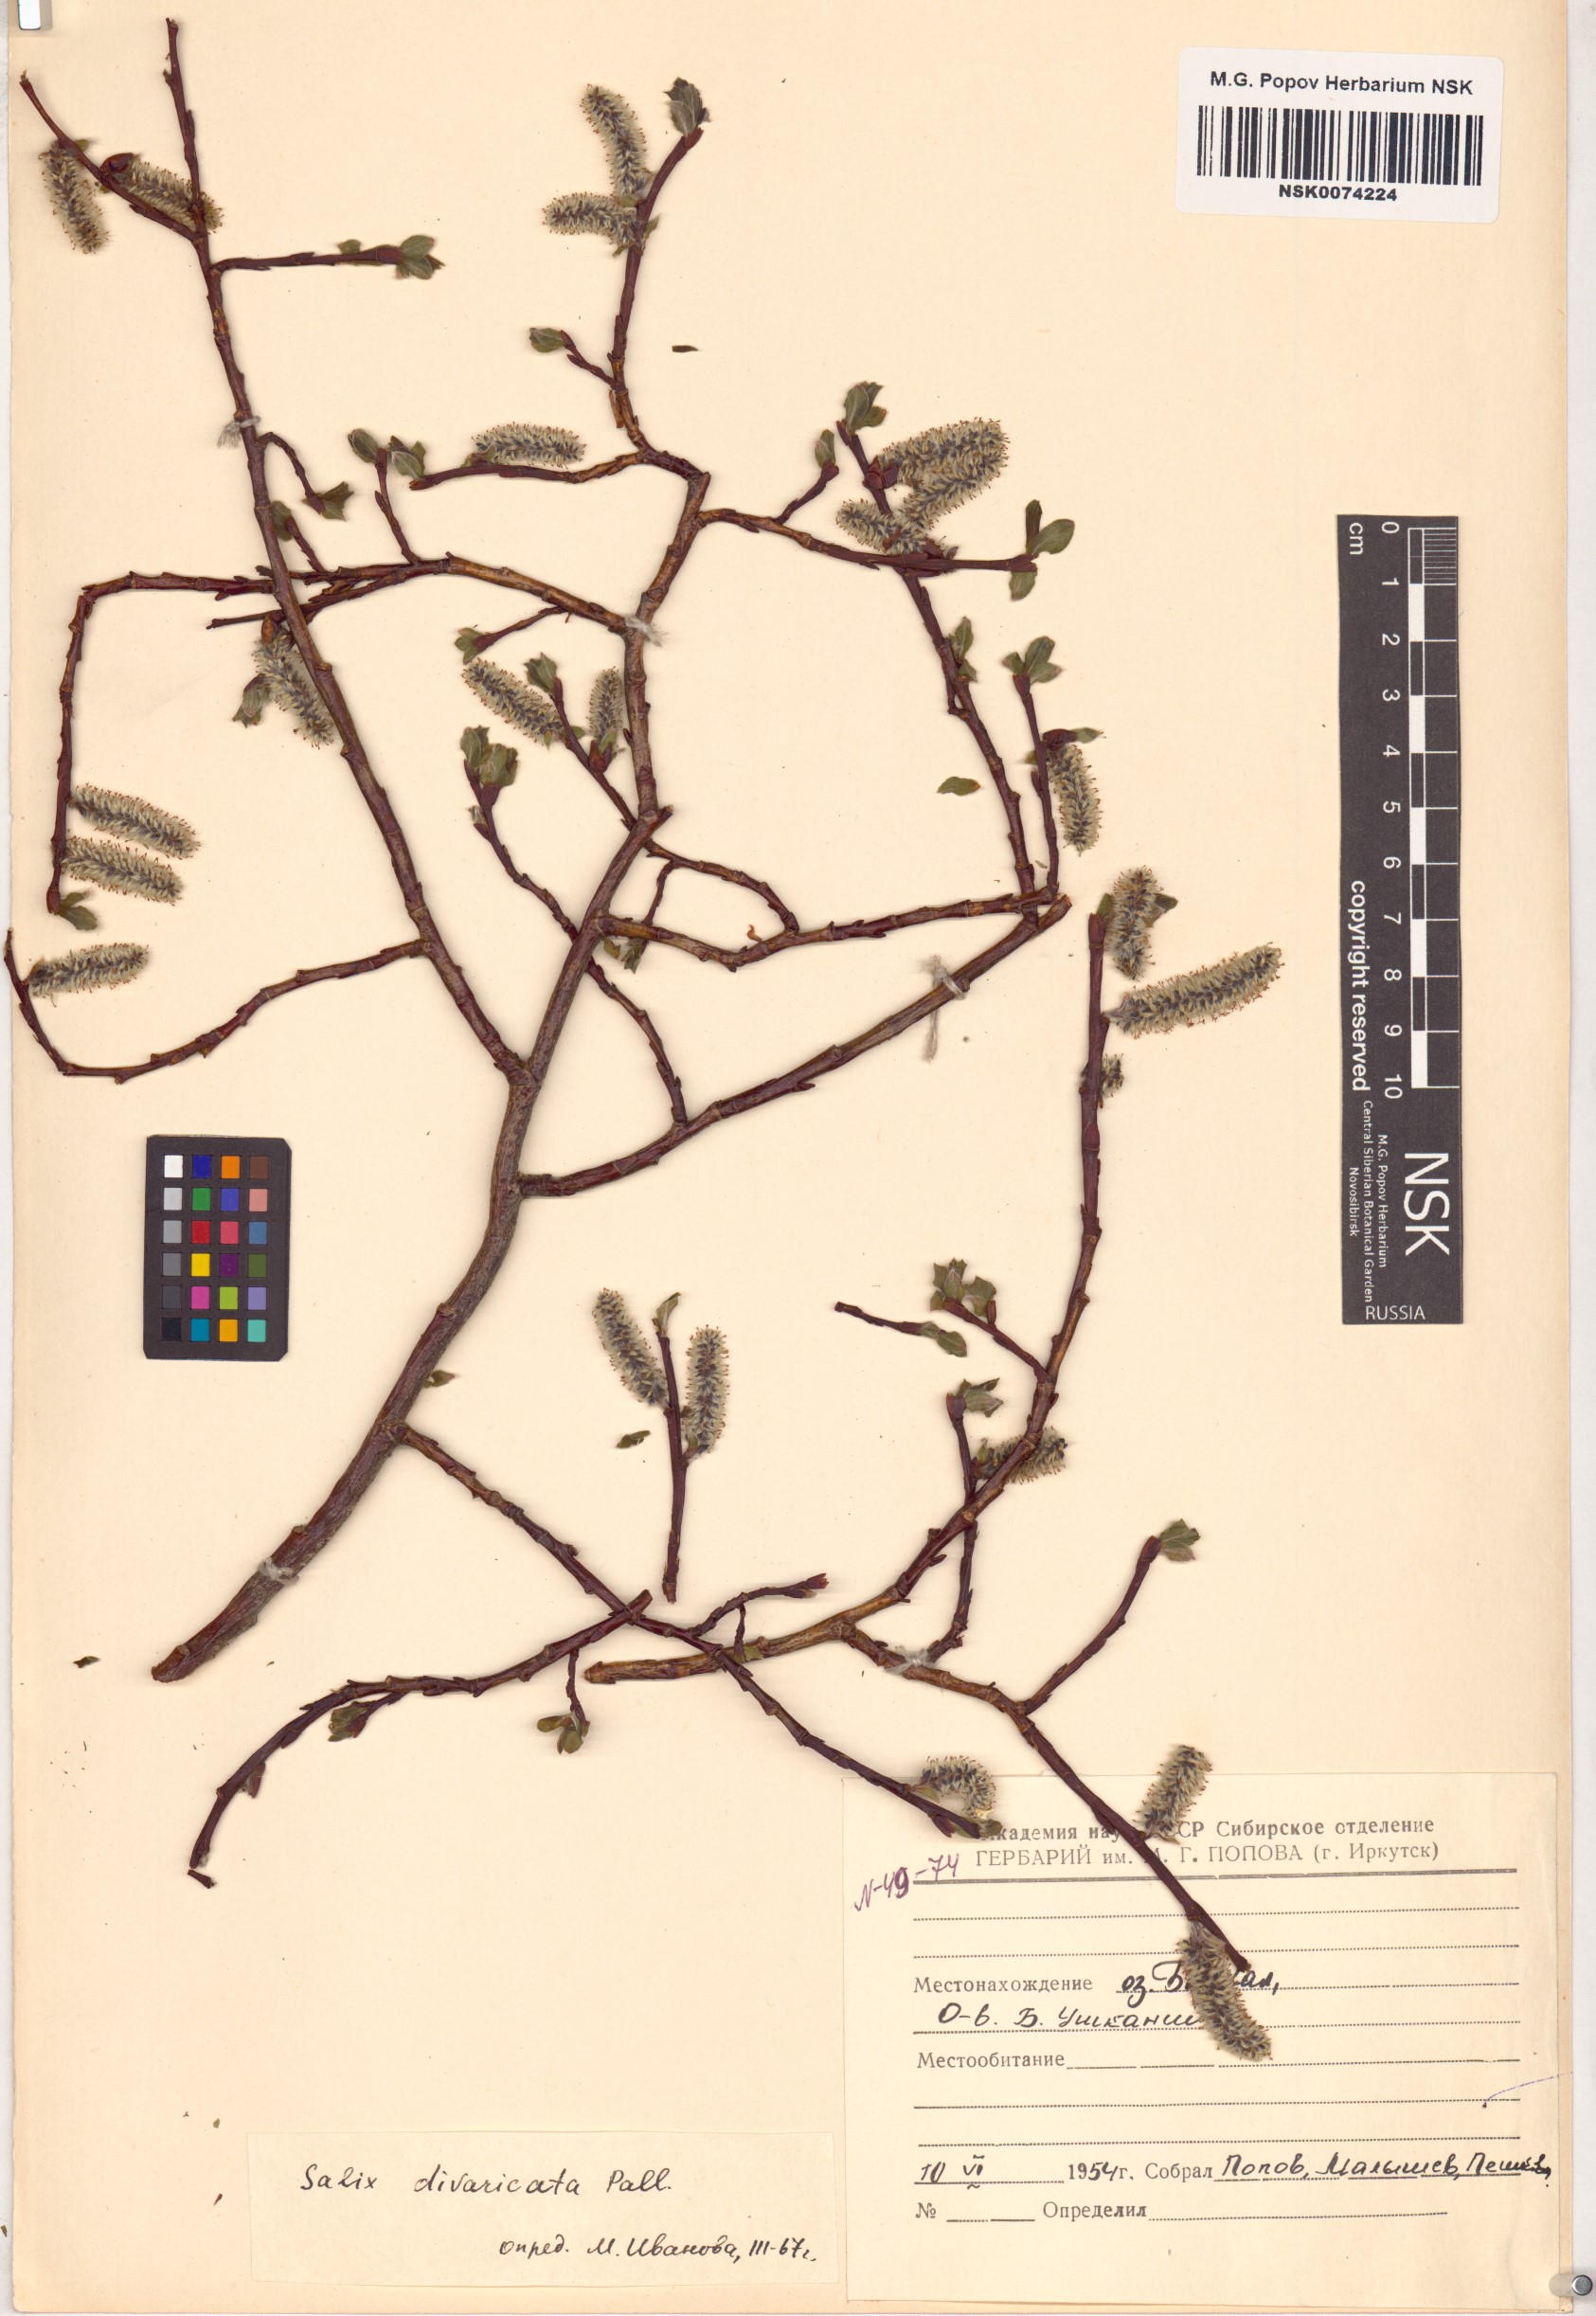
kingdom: Plantae
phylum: Tracheophyta
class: Magnoliopsida
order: Malpighiales
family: Salicaceae
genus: Salix
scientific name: Salix divaricata
